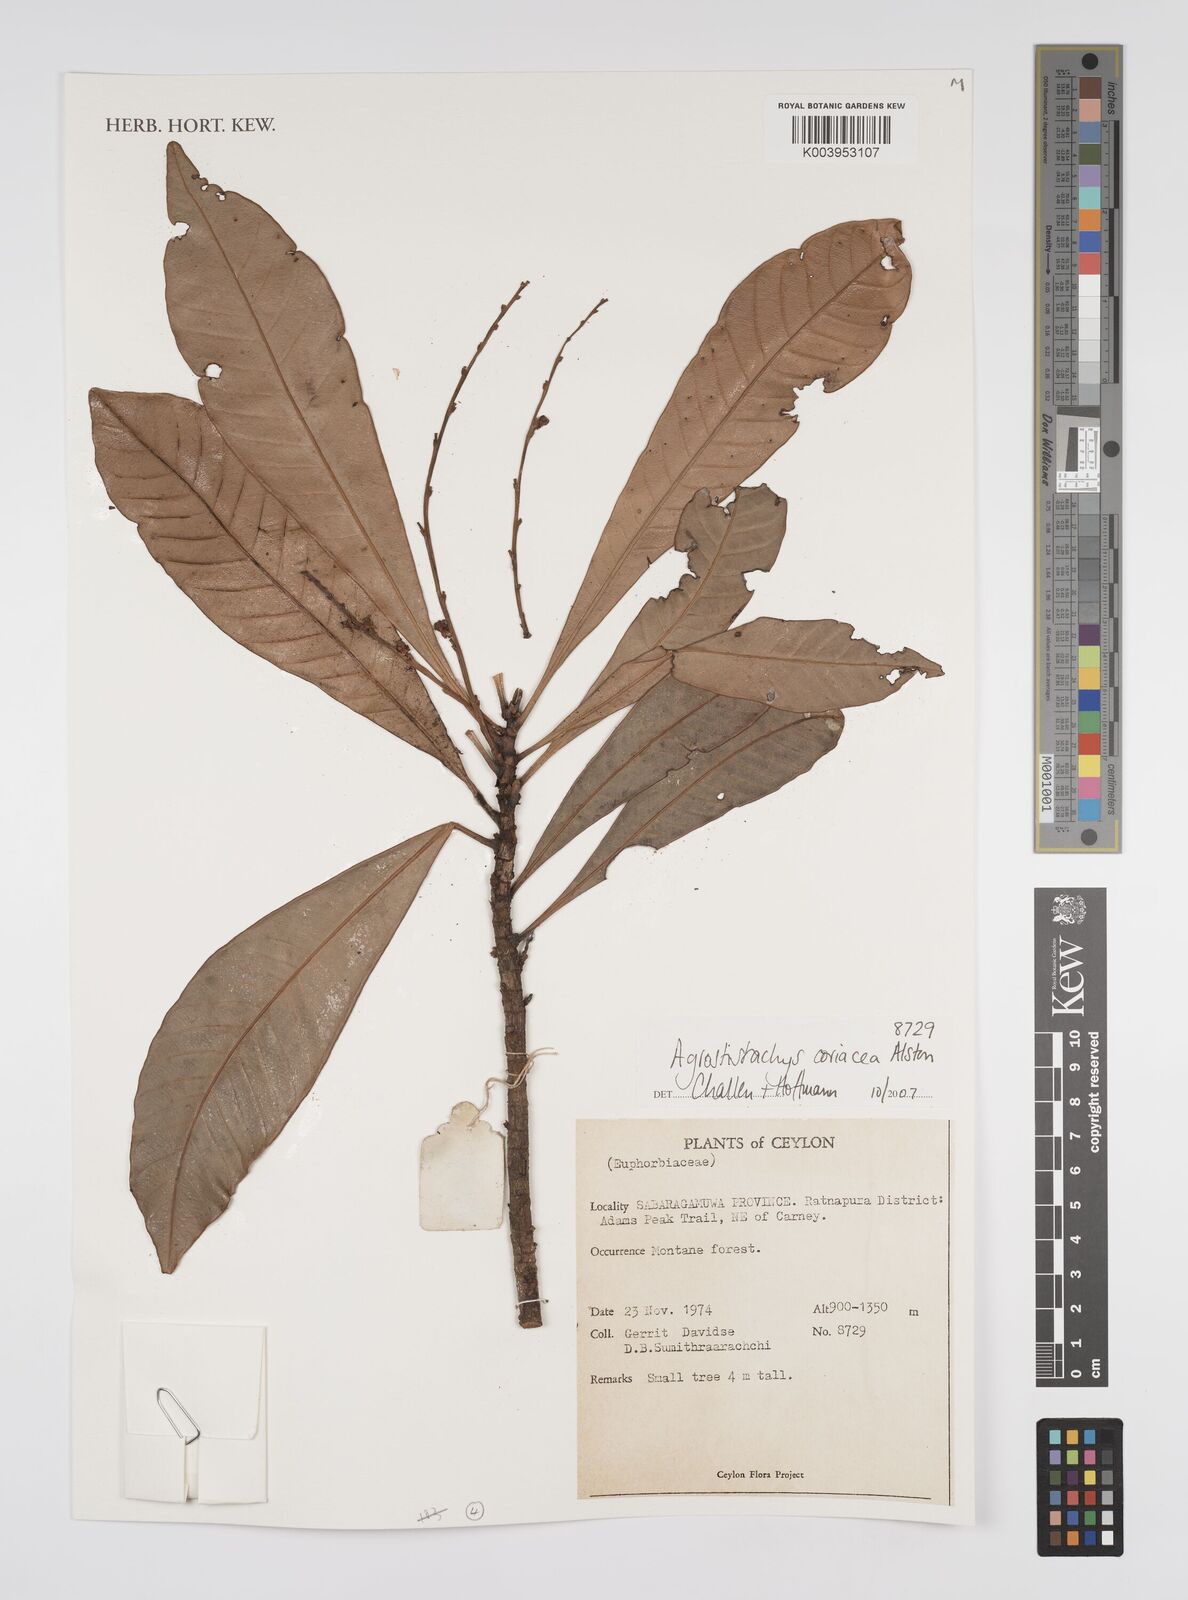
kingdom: Plantae
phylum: Tracheophyta
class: Magnoliopsida
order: Malpighiales
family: Euphorbiaceae
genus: Agrostistachys
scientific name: Agrostistachys borneensis
